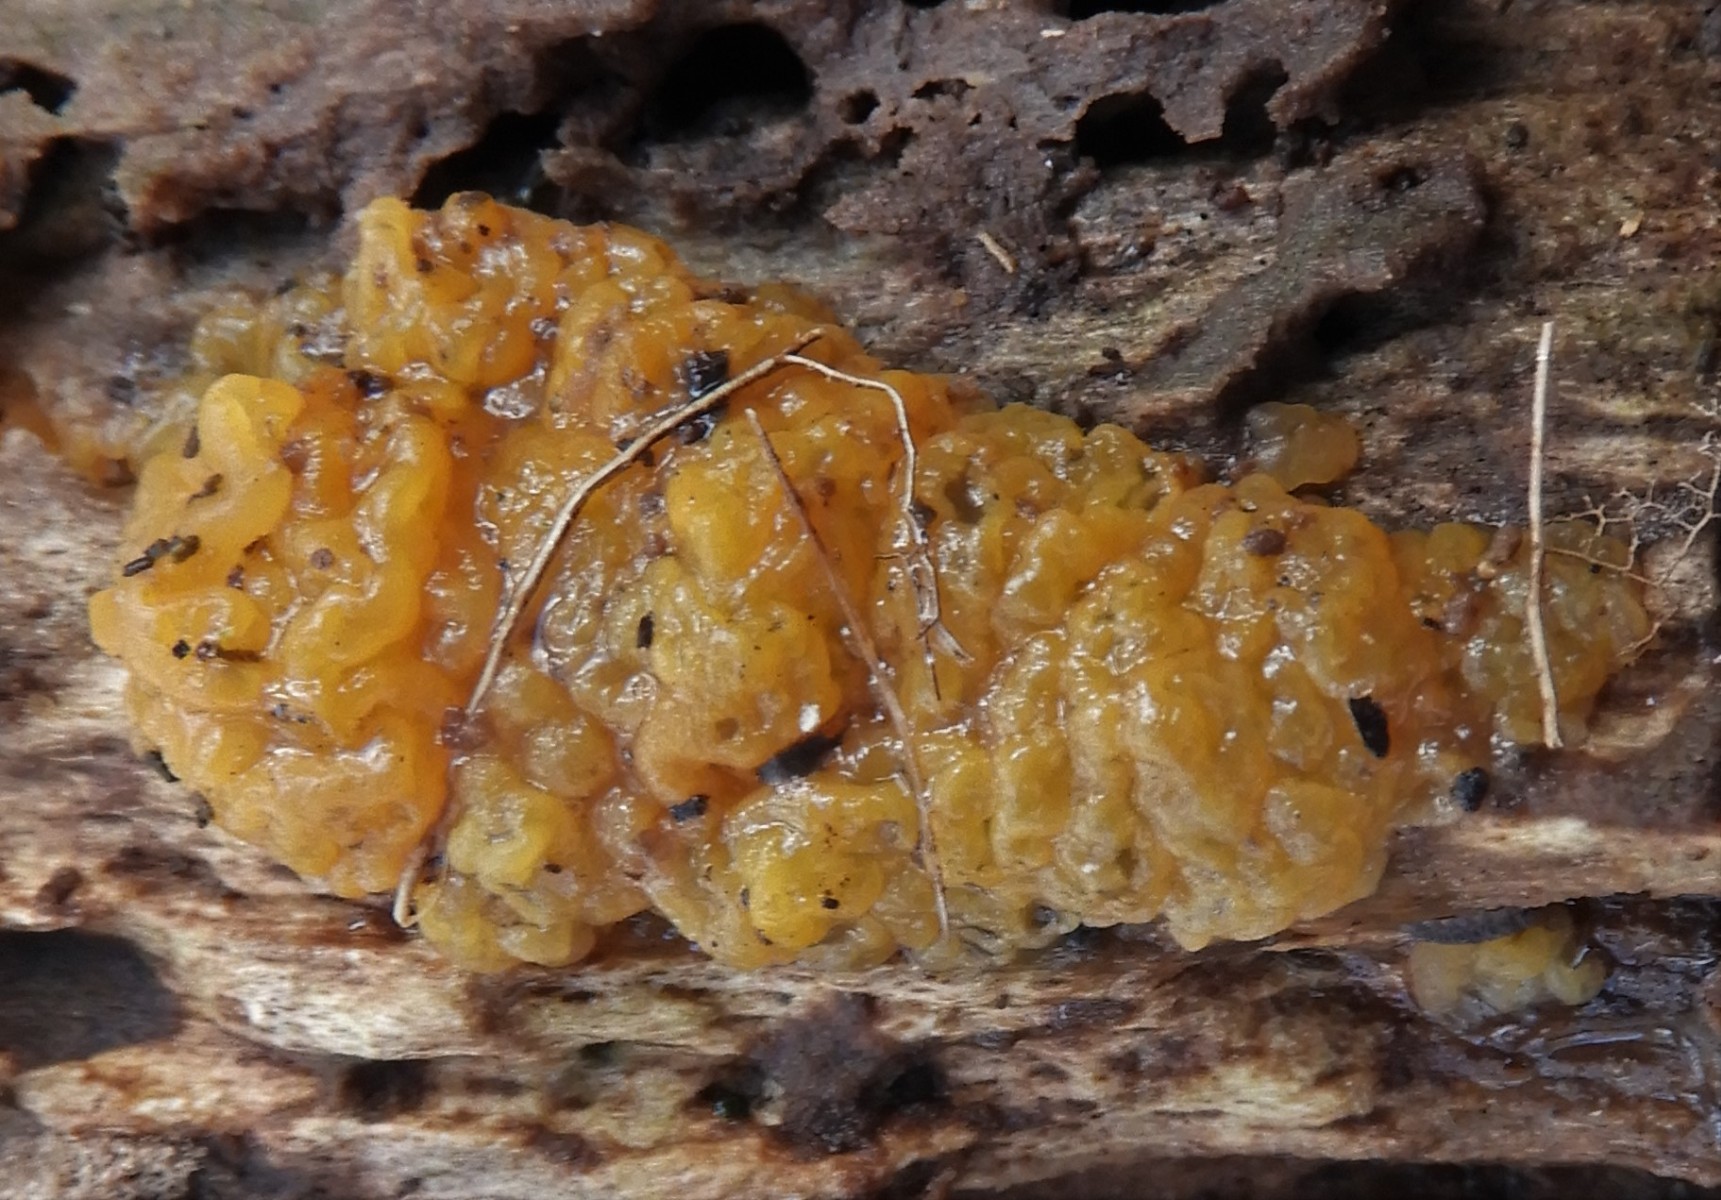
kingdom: Fungi
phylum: Basidiomycota
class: Dacrymycetes
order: Dacrymycetales
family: Dacrymycetaceae
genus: Dacrymyces
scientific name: Dacrymyces lacrymalis
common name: rynket tåresvamp
